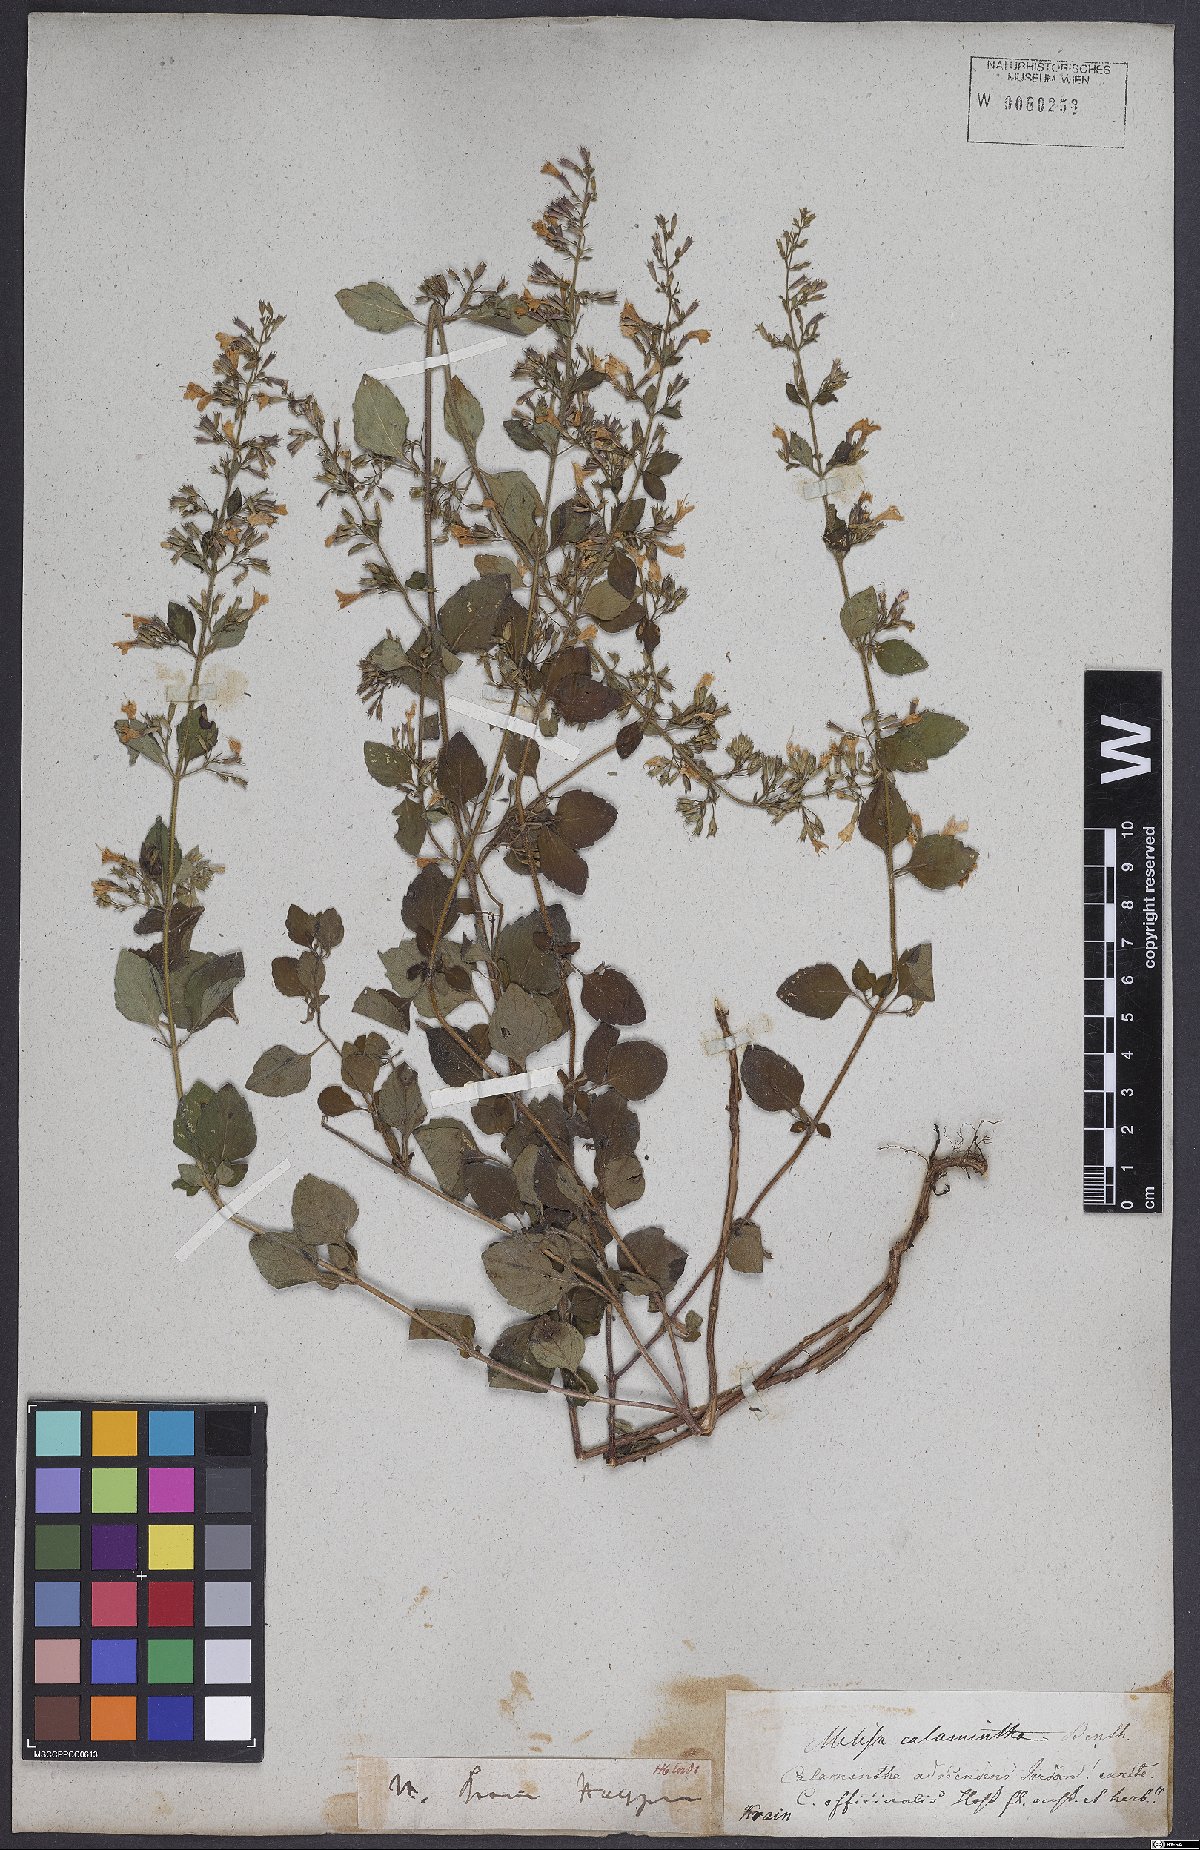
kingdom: Plantae
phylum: Tracheophyta
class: Magnoliopsida
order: Lamiales
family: Lamiaceae
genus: Clinopodium
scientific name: Clinopodium menthifolium
